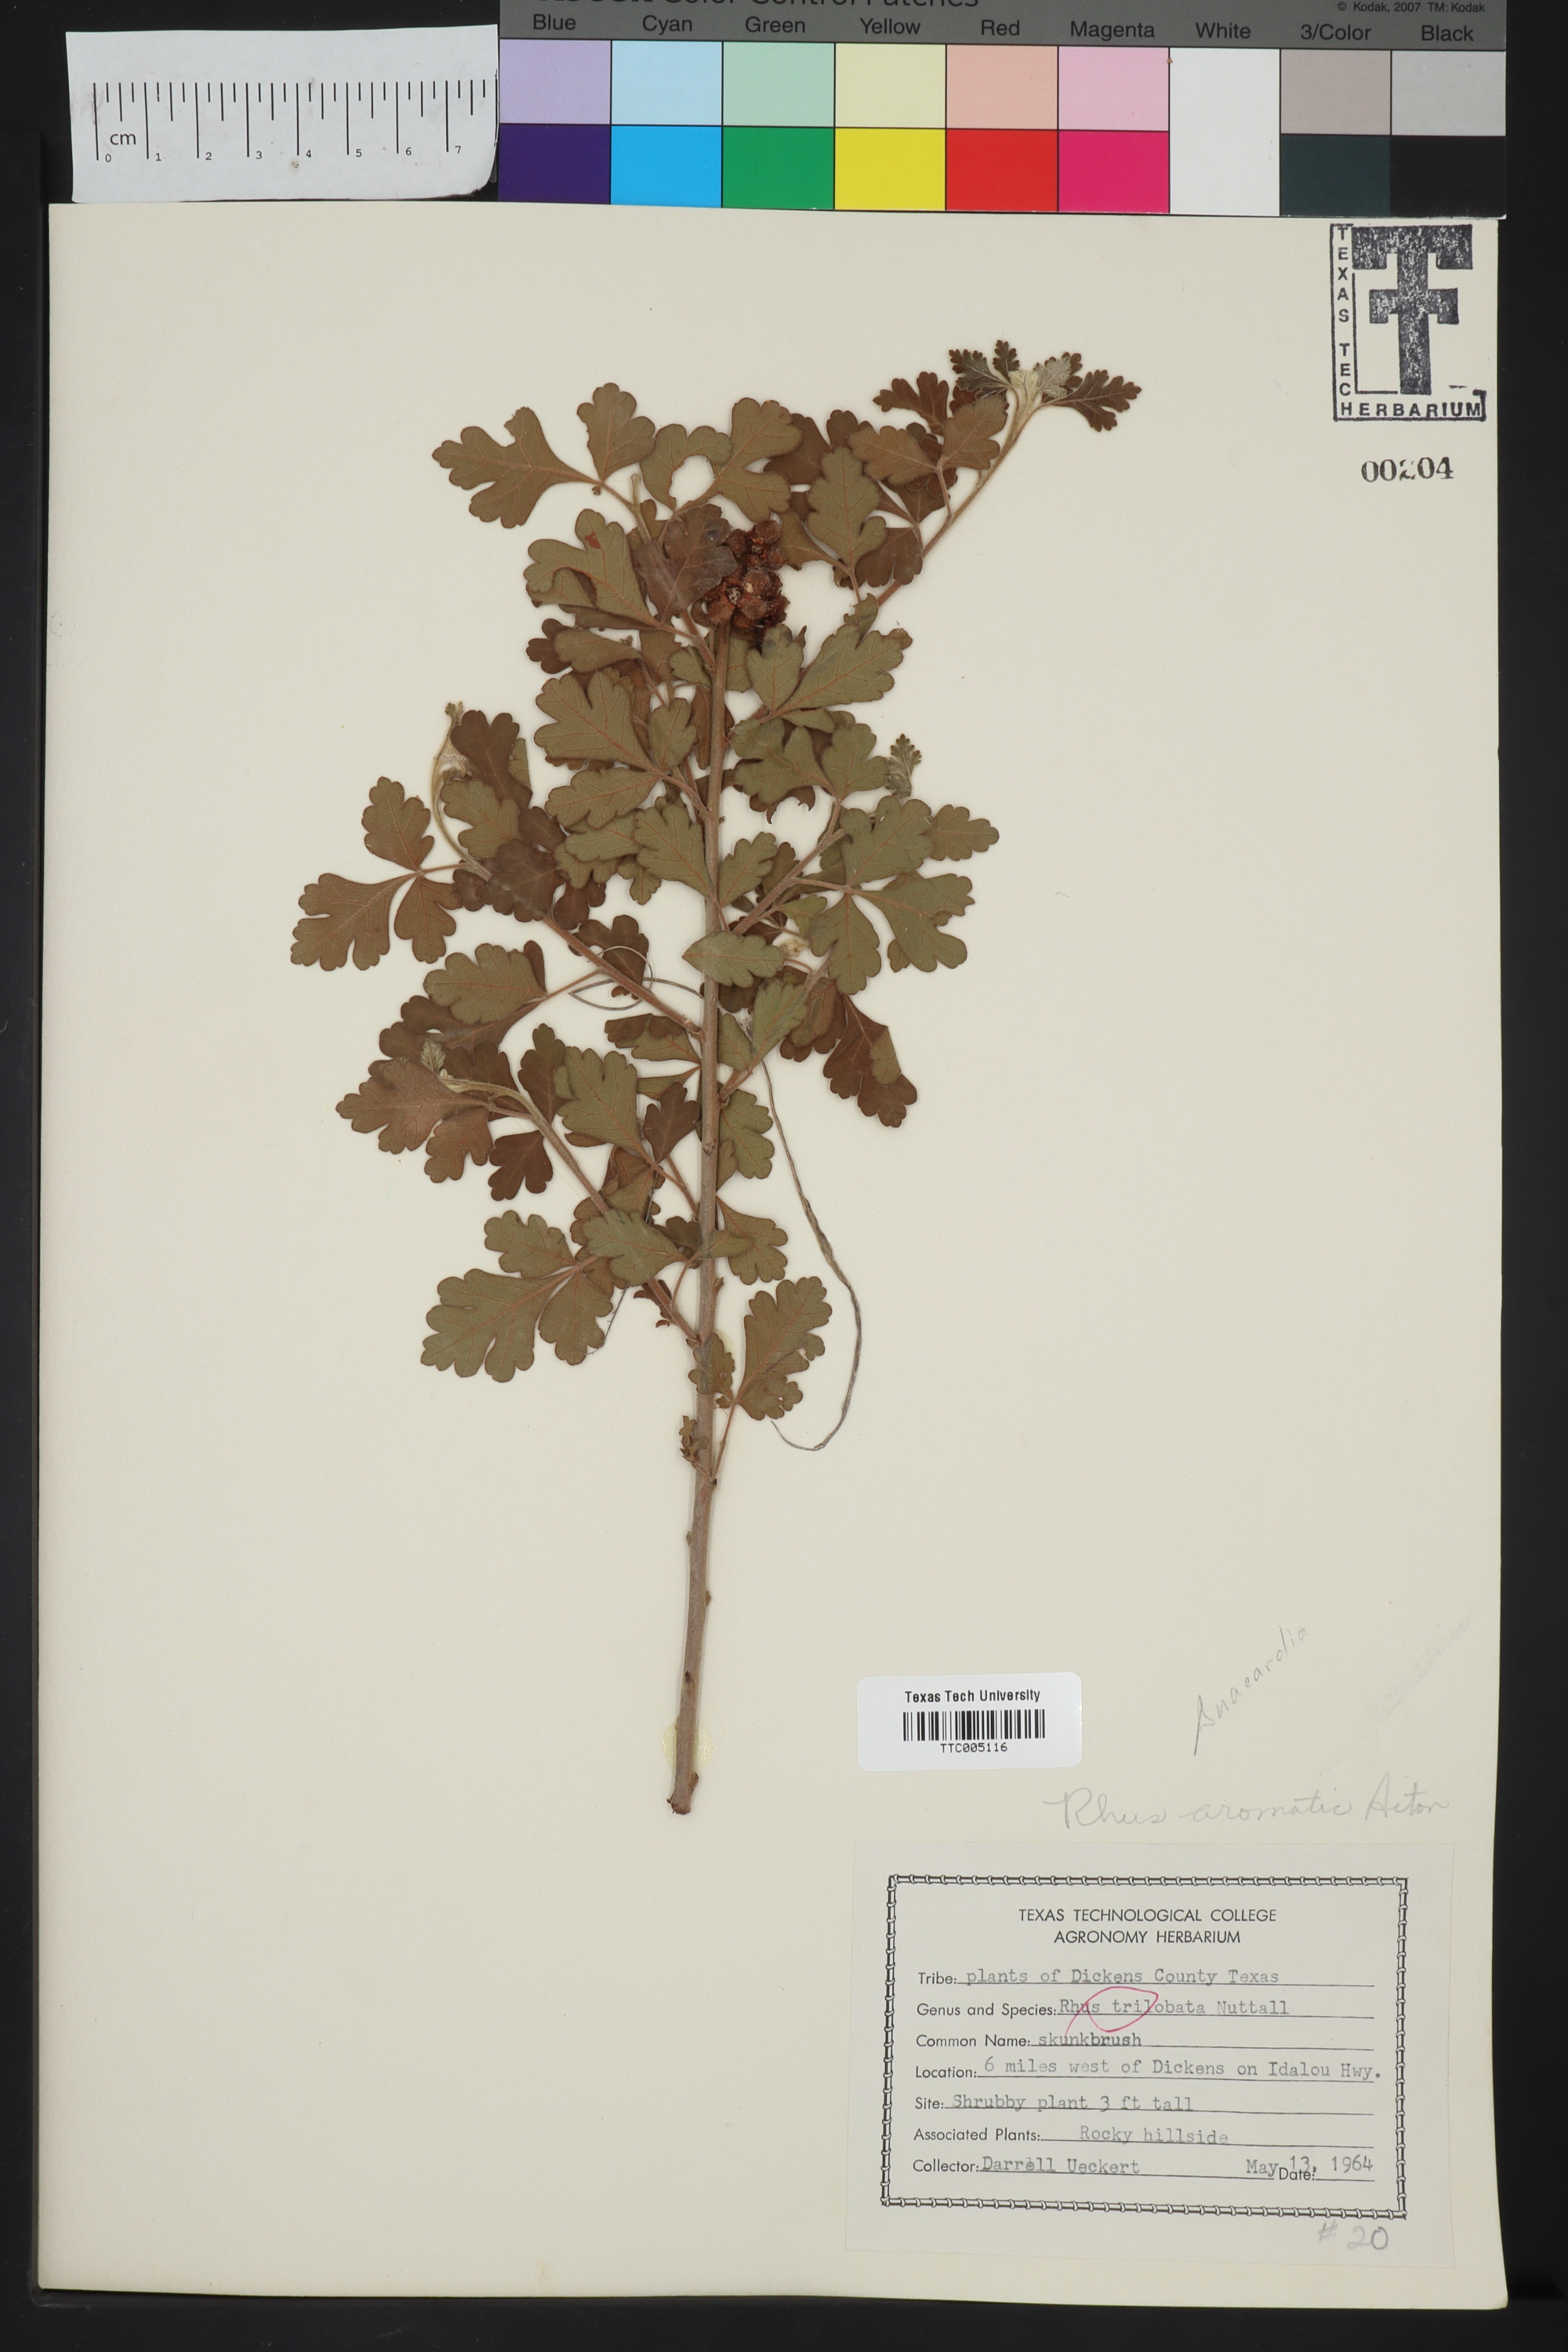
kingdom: Plantae
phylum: Tracheophyta
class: Magnoliopsida
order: Sapindales
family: Anacardiaceae
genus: Rhus
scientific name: Rhus aromatica
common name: Aromatic sumac
